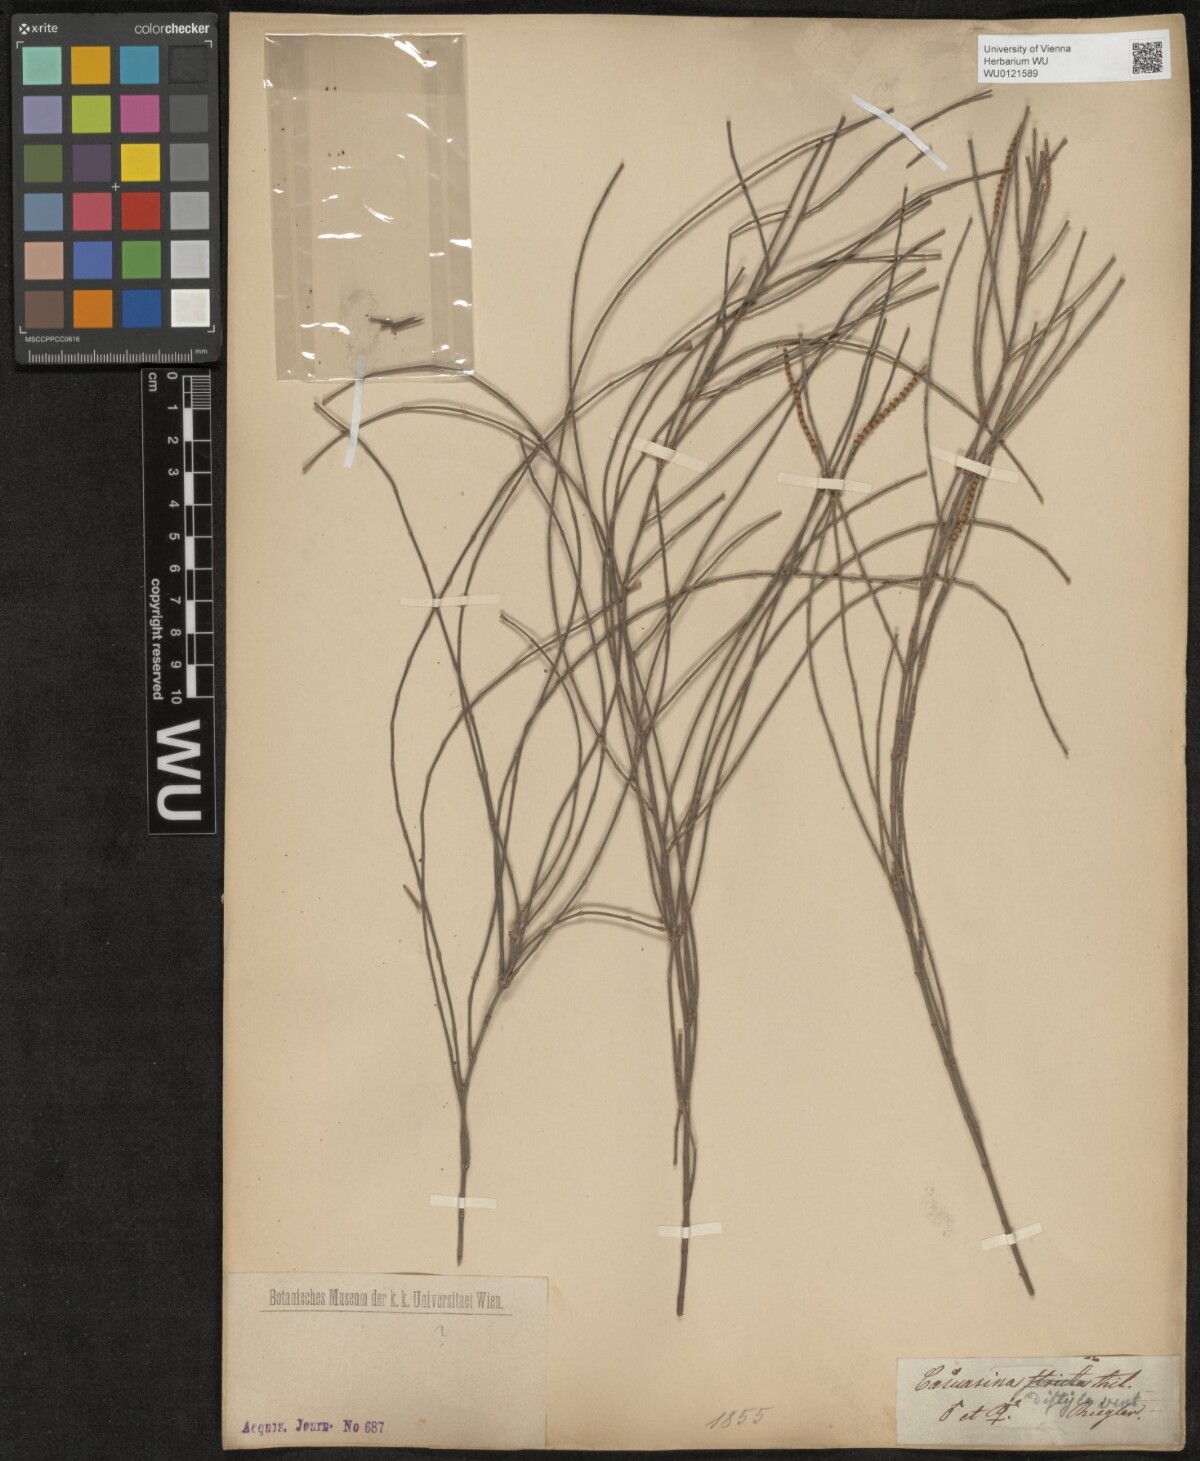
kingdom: Plantae
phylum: Tracheophyta
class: Magnoliopsida
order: Fagales
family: Casuarinaceae
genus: Allocasuarina
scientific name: Allocasuarina distyla
